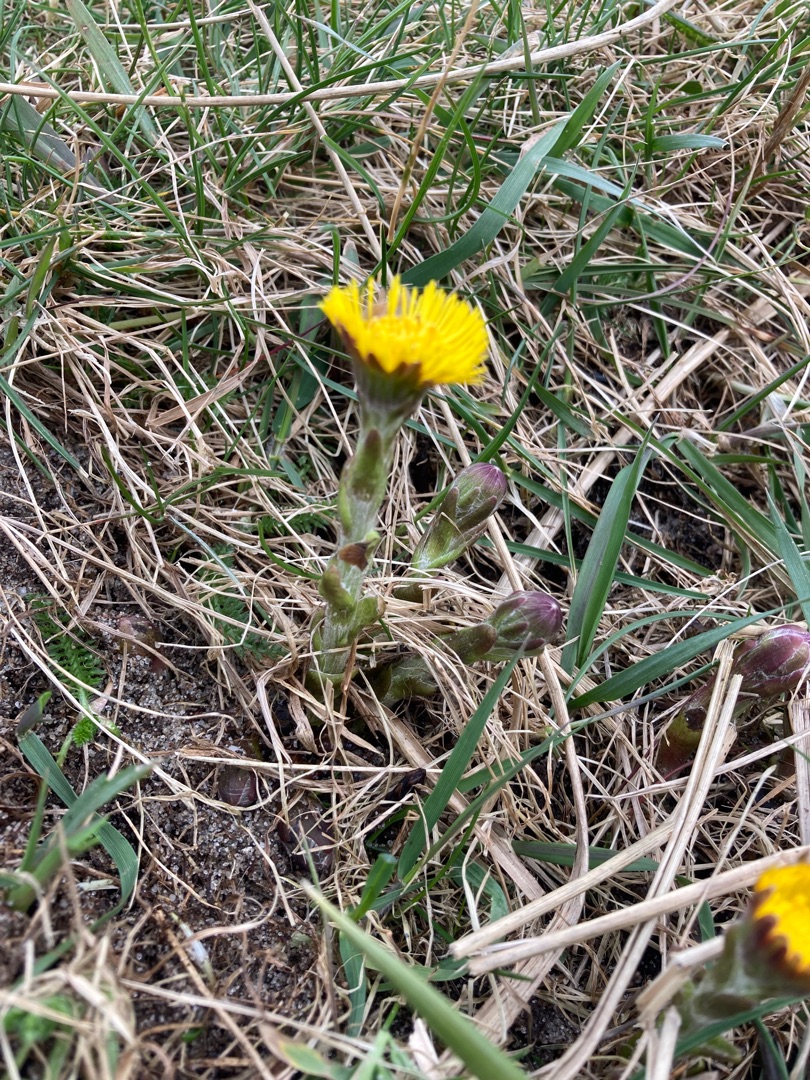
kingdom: Plantae
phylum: Tracheophyta
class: Magnoliopsida
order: Asterales
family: Asteraceae
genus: Tussilago
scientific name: Tussilago farfara
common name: Følfod
